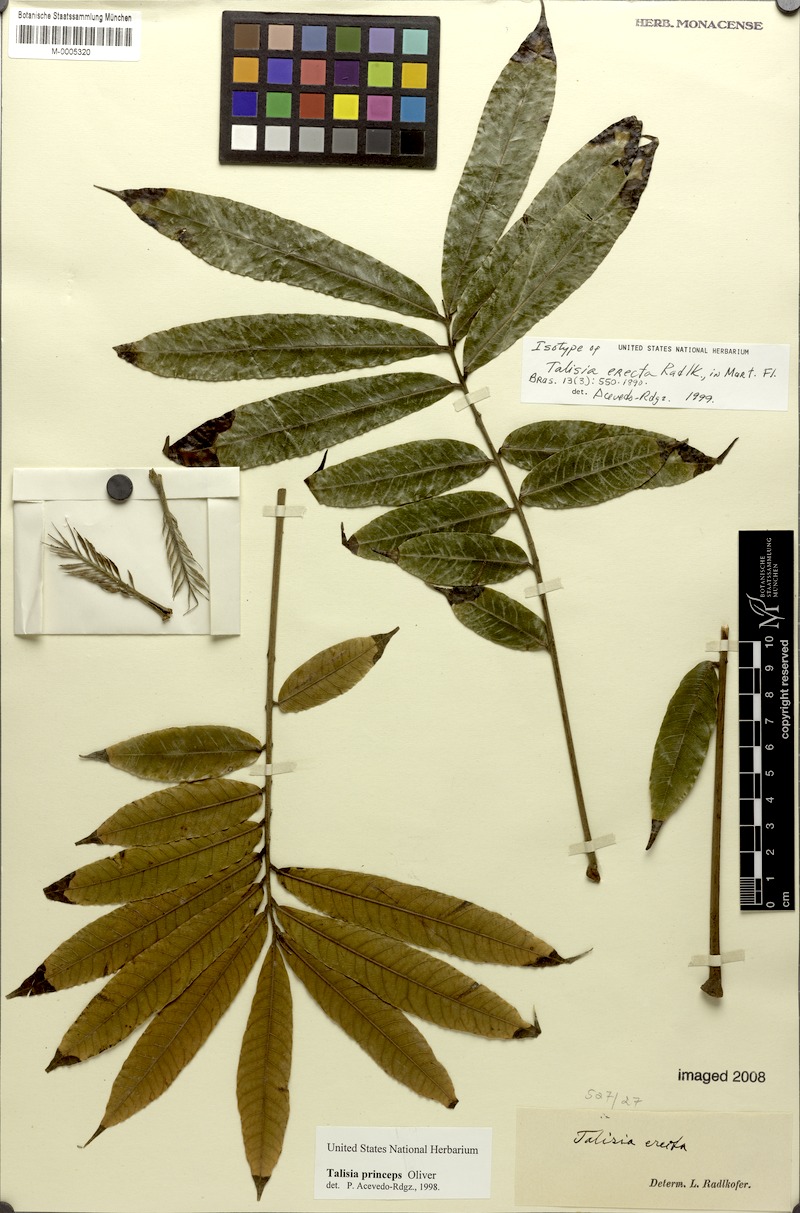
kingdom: Plantae
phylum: Tracheophyta
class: Magnoliopsida
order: Sapindales
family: Sapindaceae
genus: Talisia
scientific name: Talisia princeps
